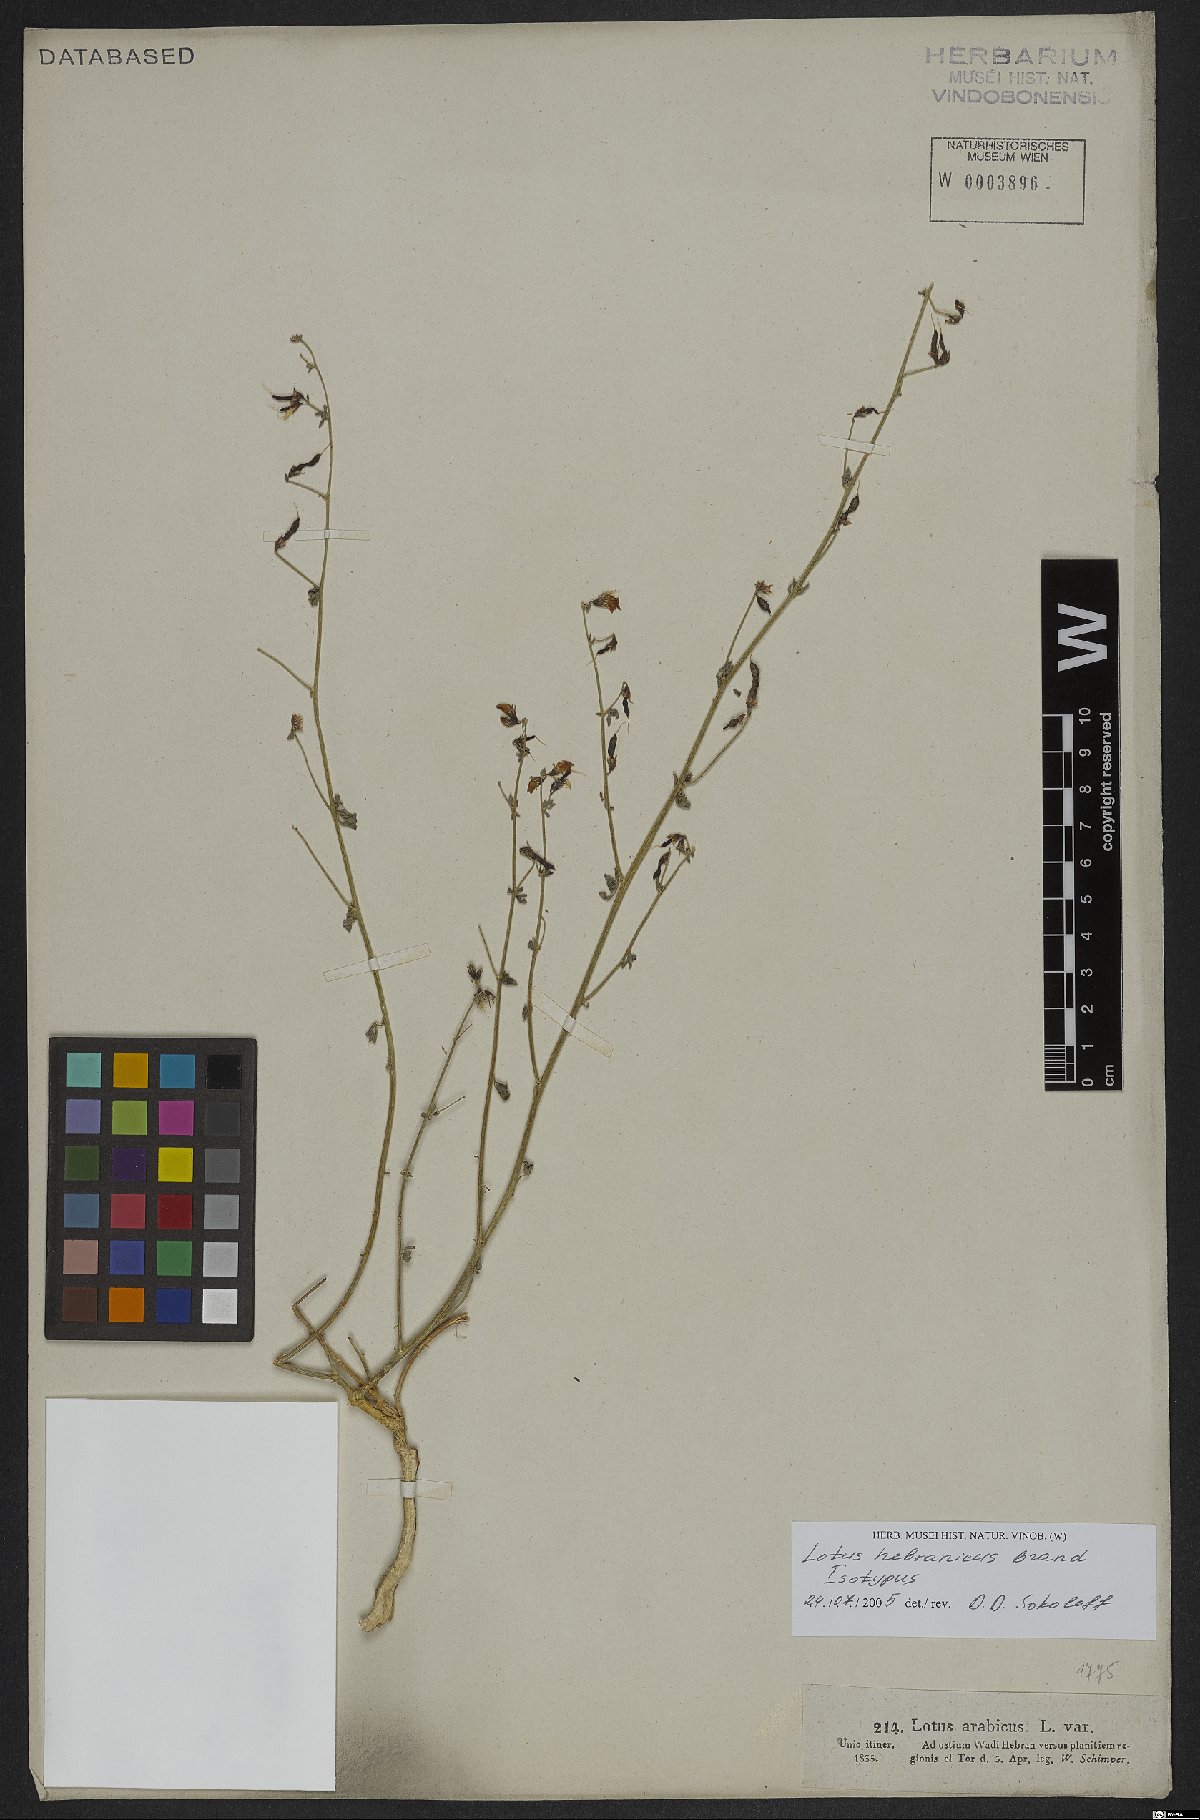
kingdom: Plantae
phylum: Tracheophyta
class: Magnoliopsida
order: Fabales
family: Fabaceae
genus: Lotus
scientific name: Lotus hebranicus
